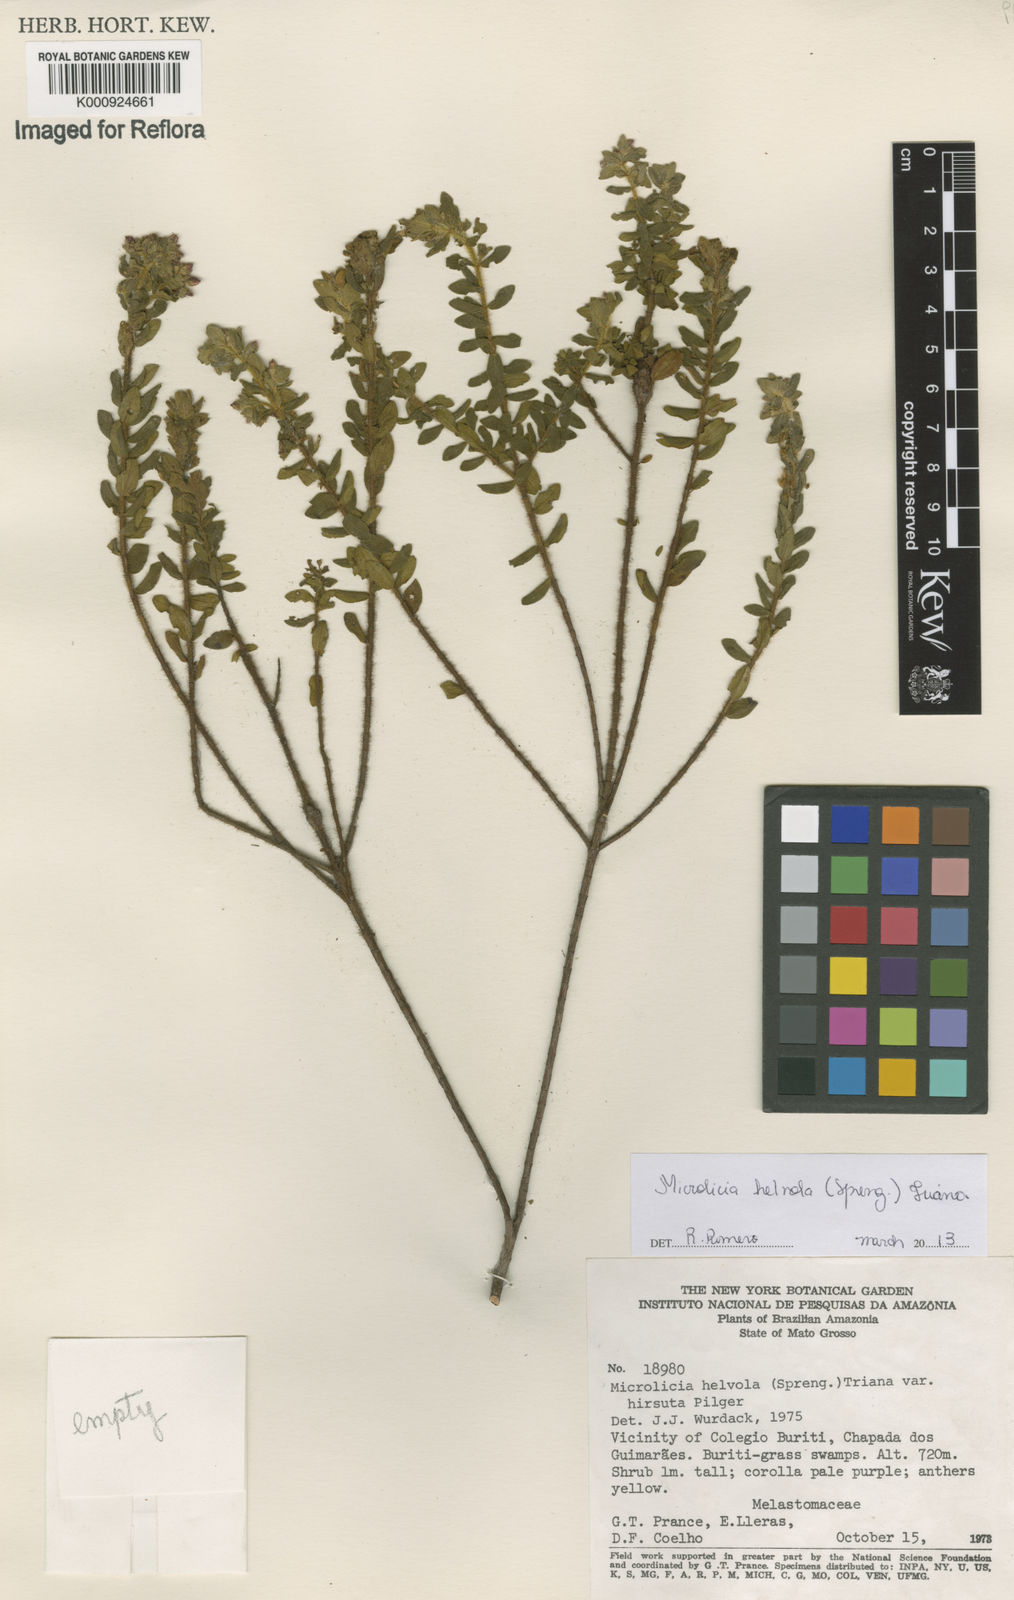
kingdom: Plantae
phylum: Tracheophyta
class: Magnoliopsida
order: Myrtales
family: Melastomataceae
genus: Microlicia
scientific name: Microlicia helvola
